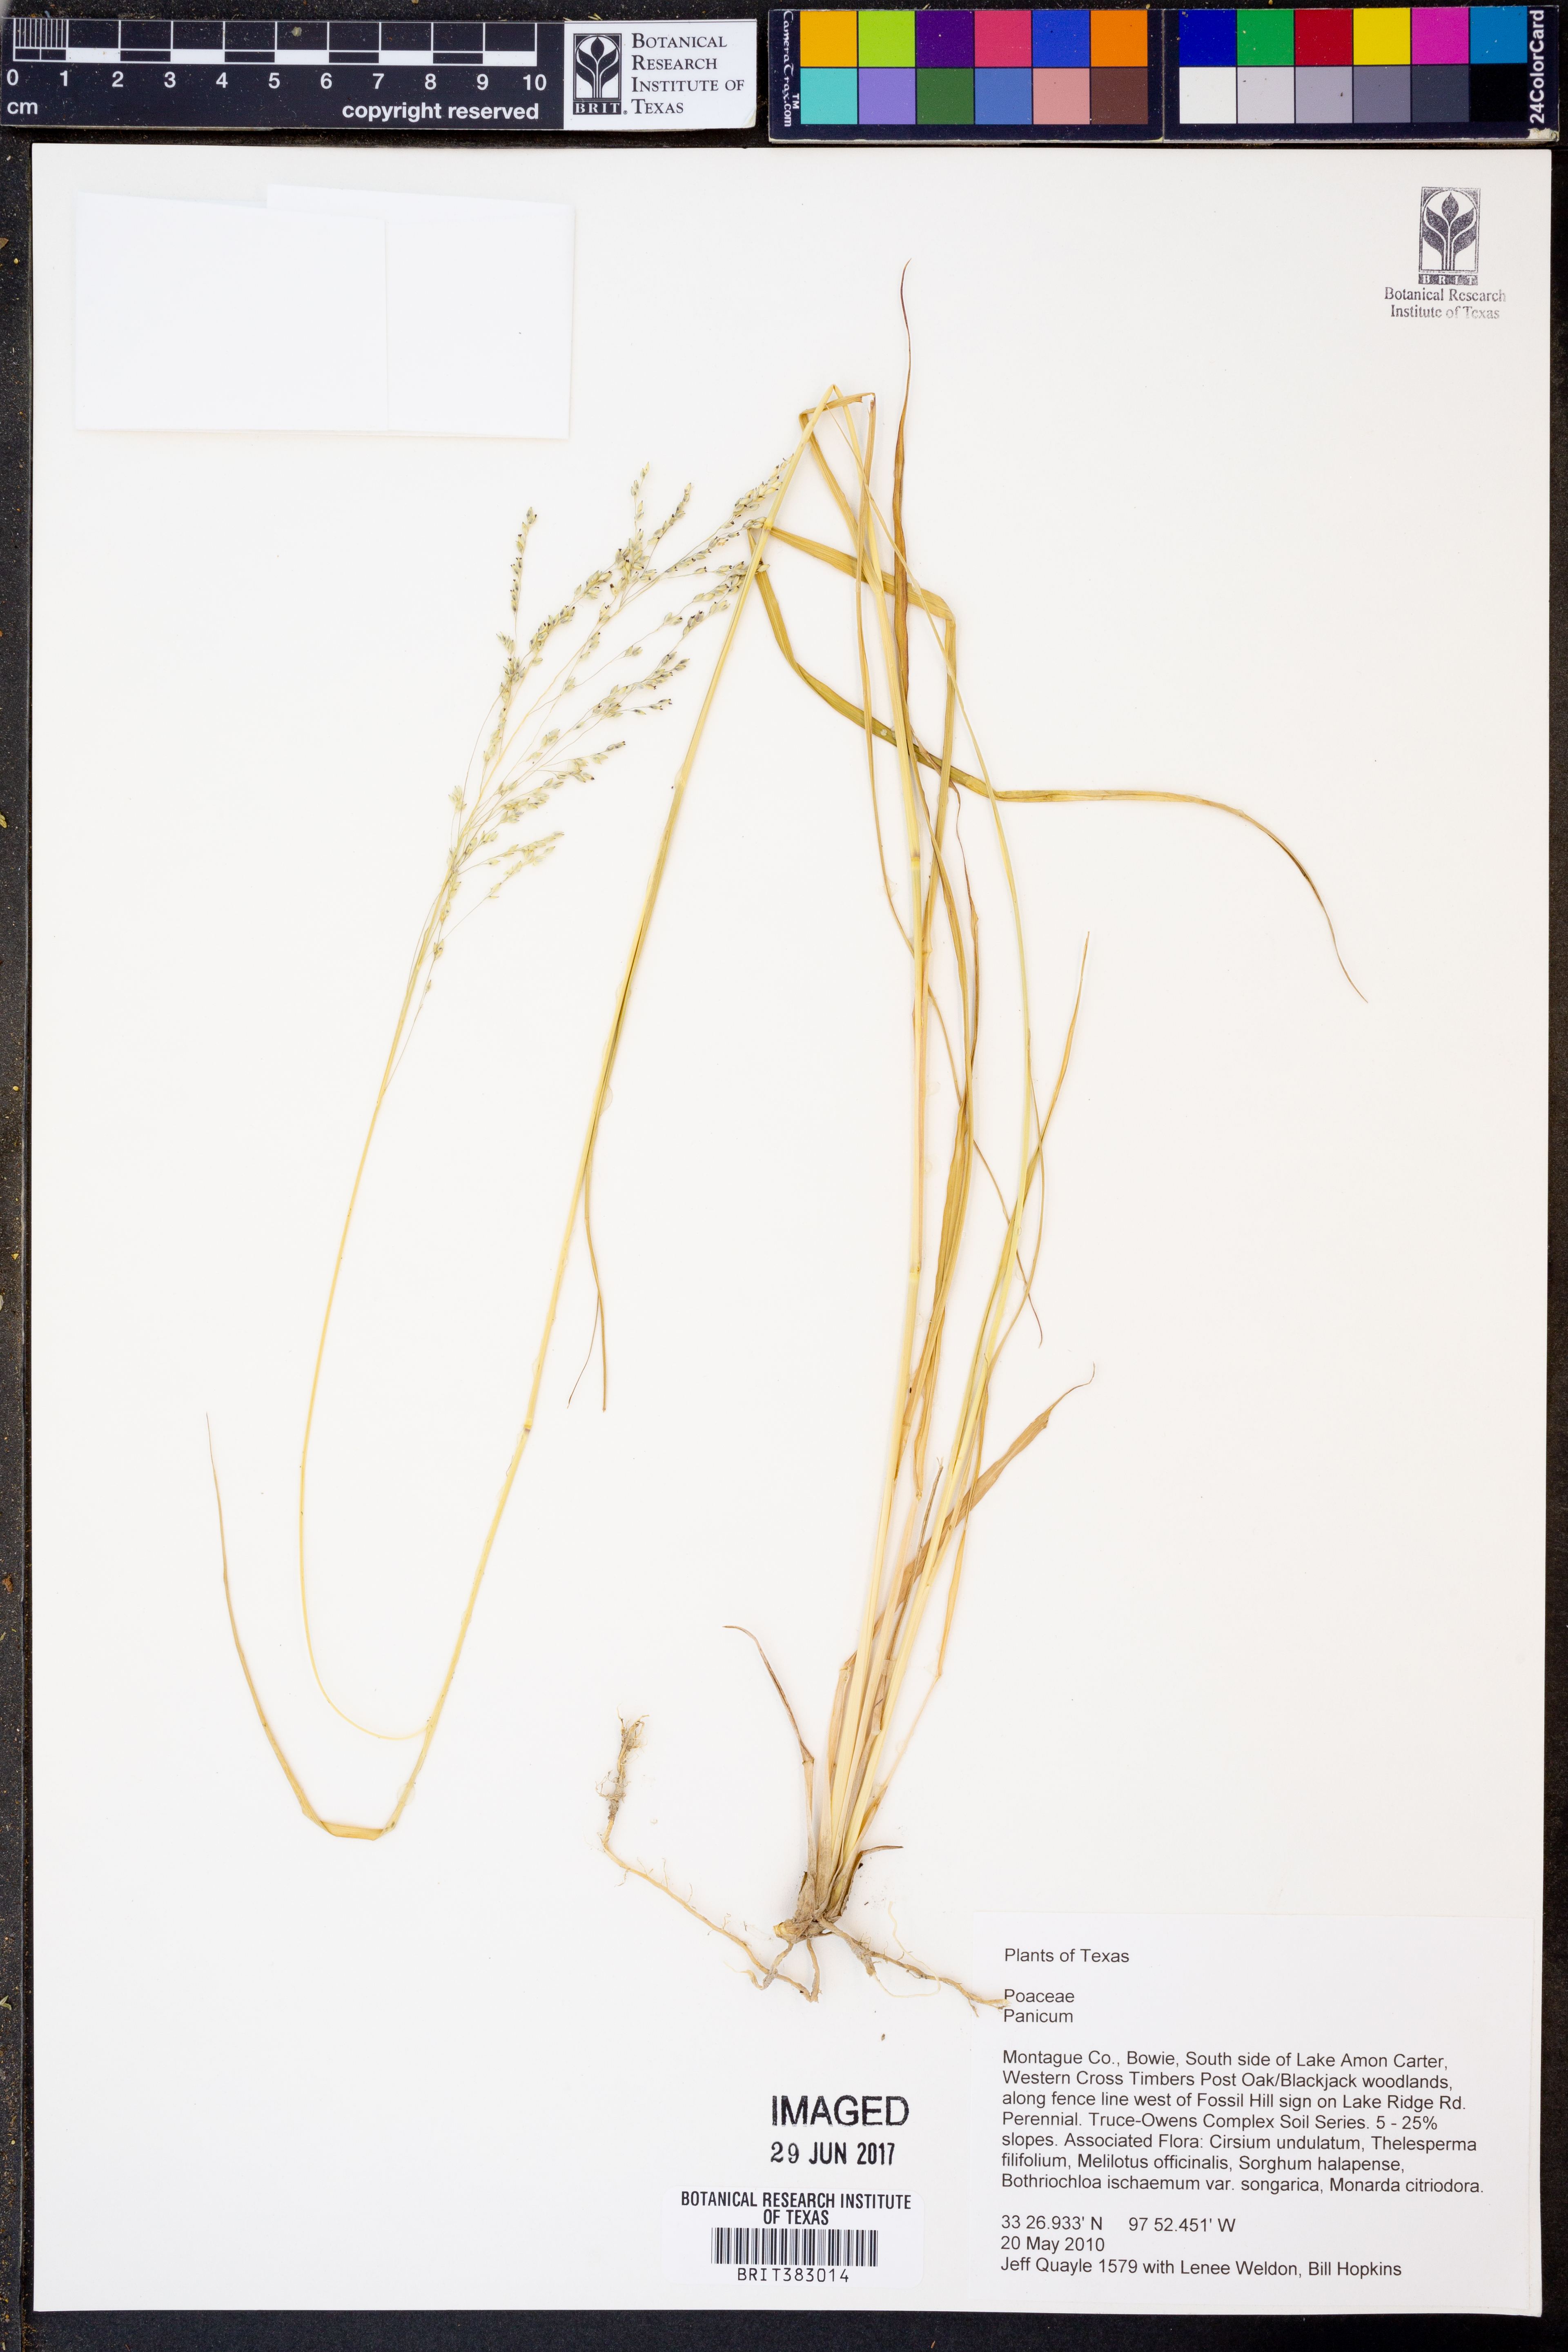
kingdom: Plantae
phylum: Tracheophyta
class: Liliopsida
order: Poales
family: Poaceae
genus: Panicum
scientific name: Panicum
